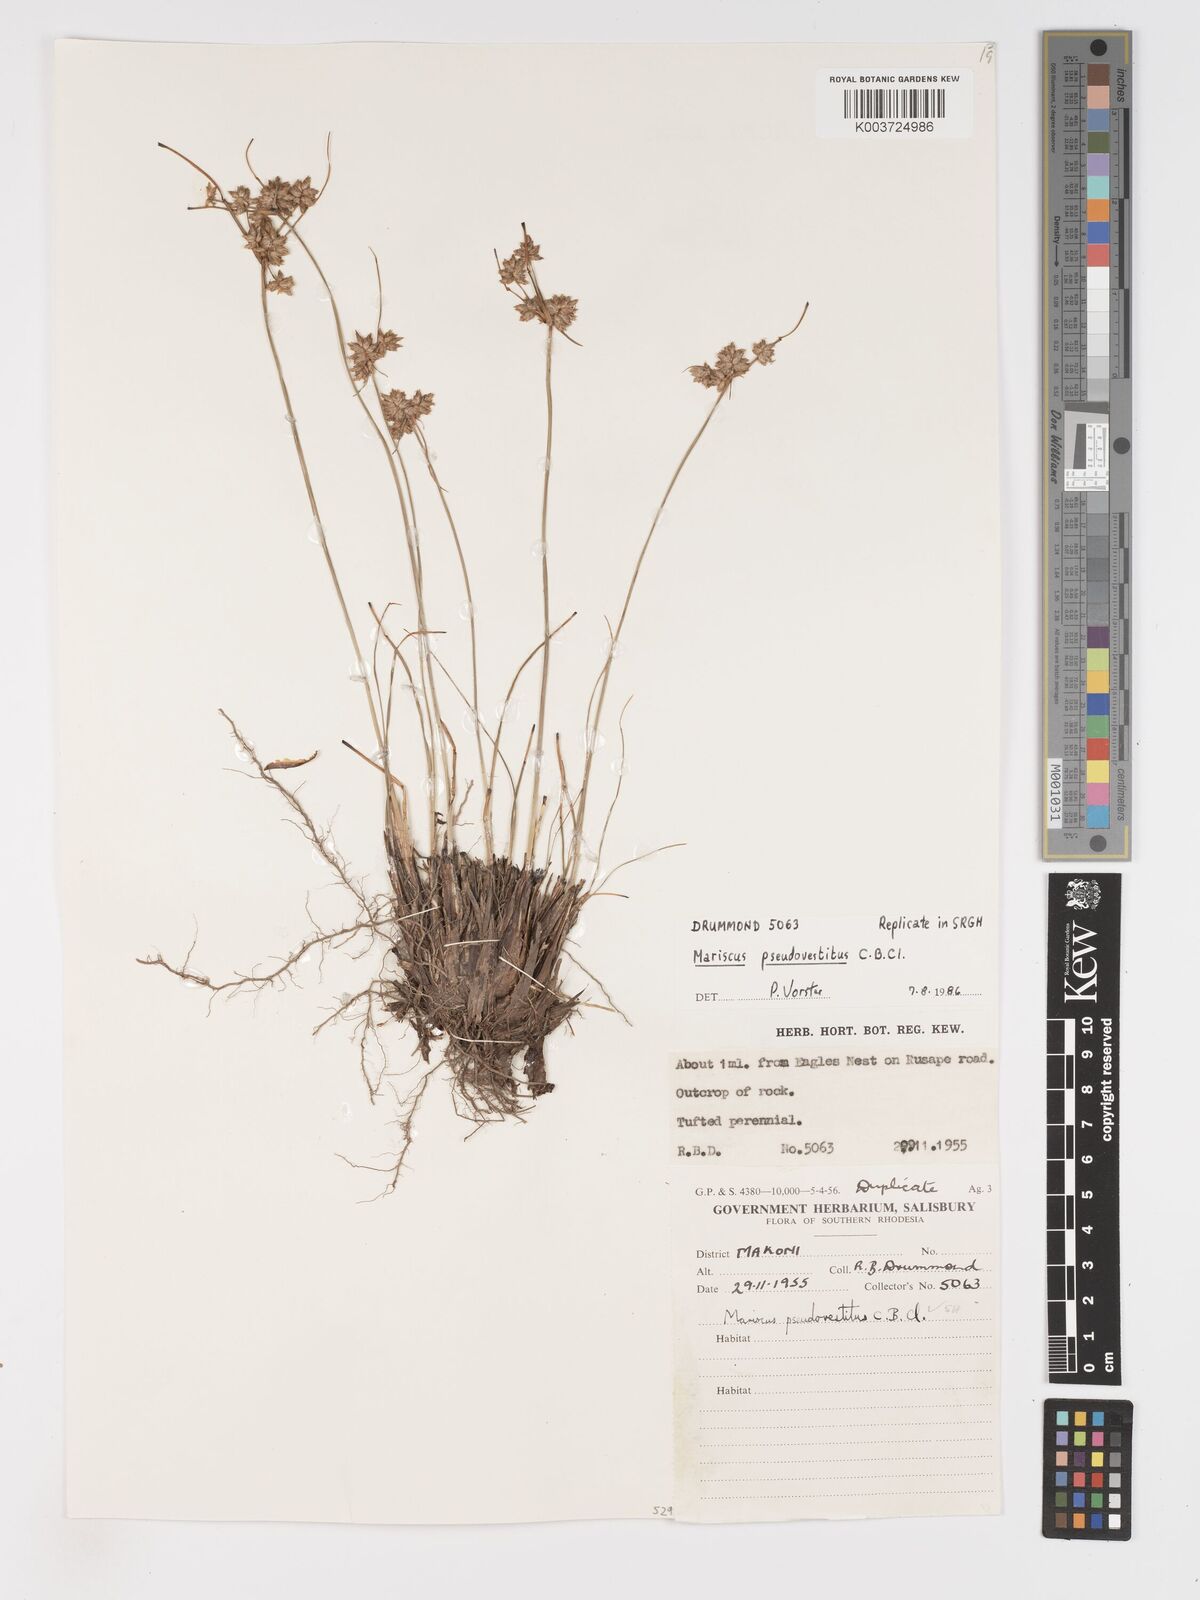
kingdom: Plantae
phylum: Tracheophyta
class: Liliopsida
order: Poales
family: Cyperaceae
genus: Cyperus
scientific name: Cyperus pseudovestitus
